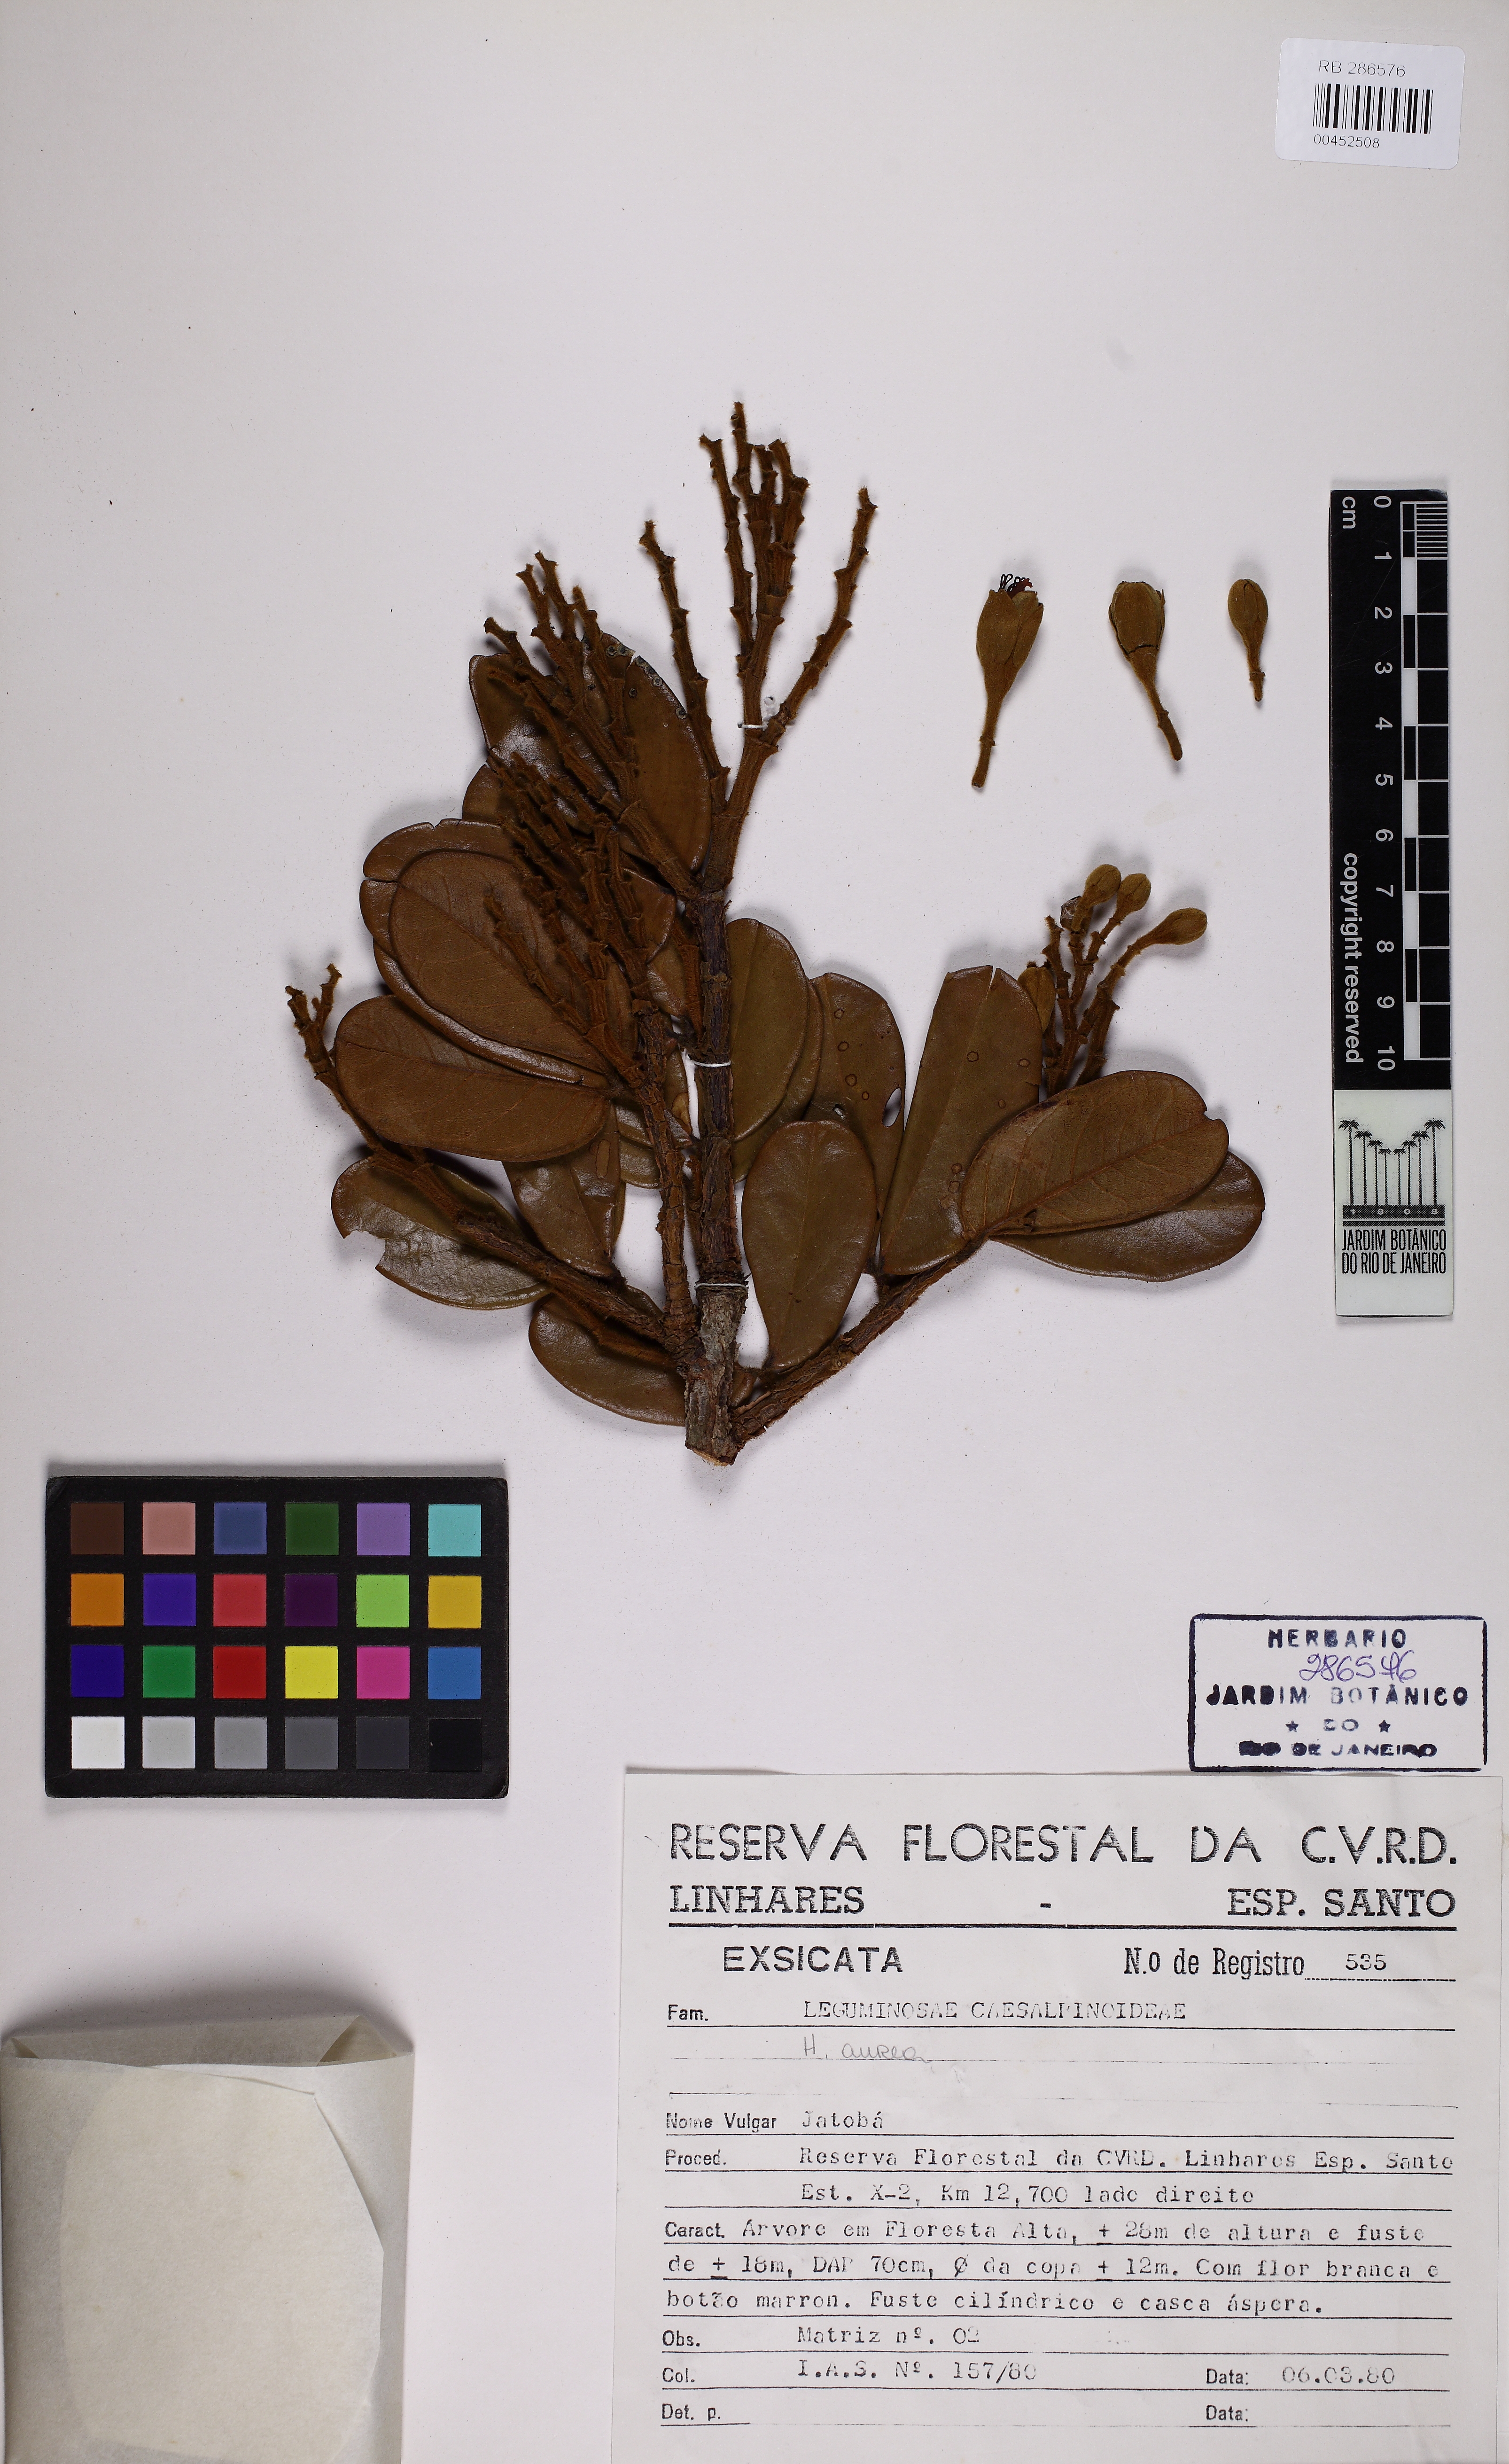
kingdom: Plantae
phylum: Tracheophyta
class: Magnoliopsida
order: Fabales
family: Fabaceae
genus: Hymenaea
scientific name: Hymenaea aurea
